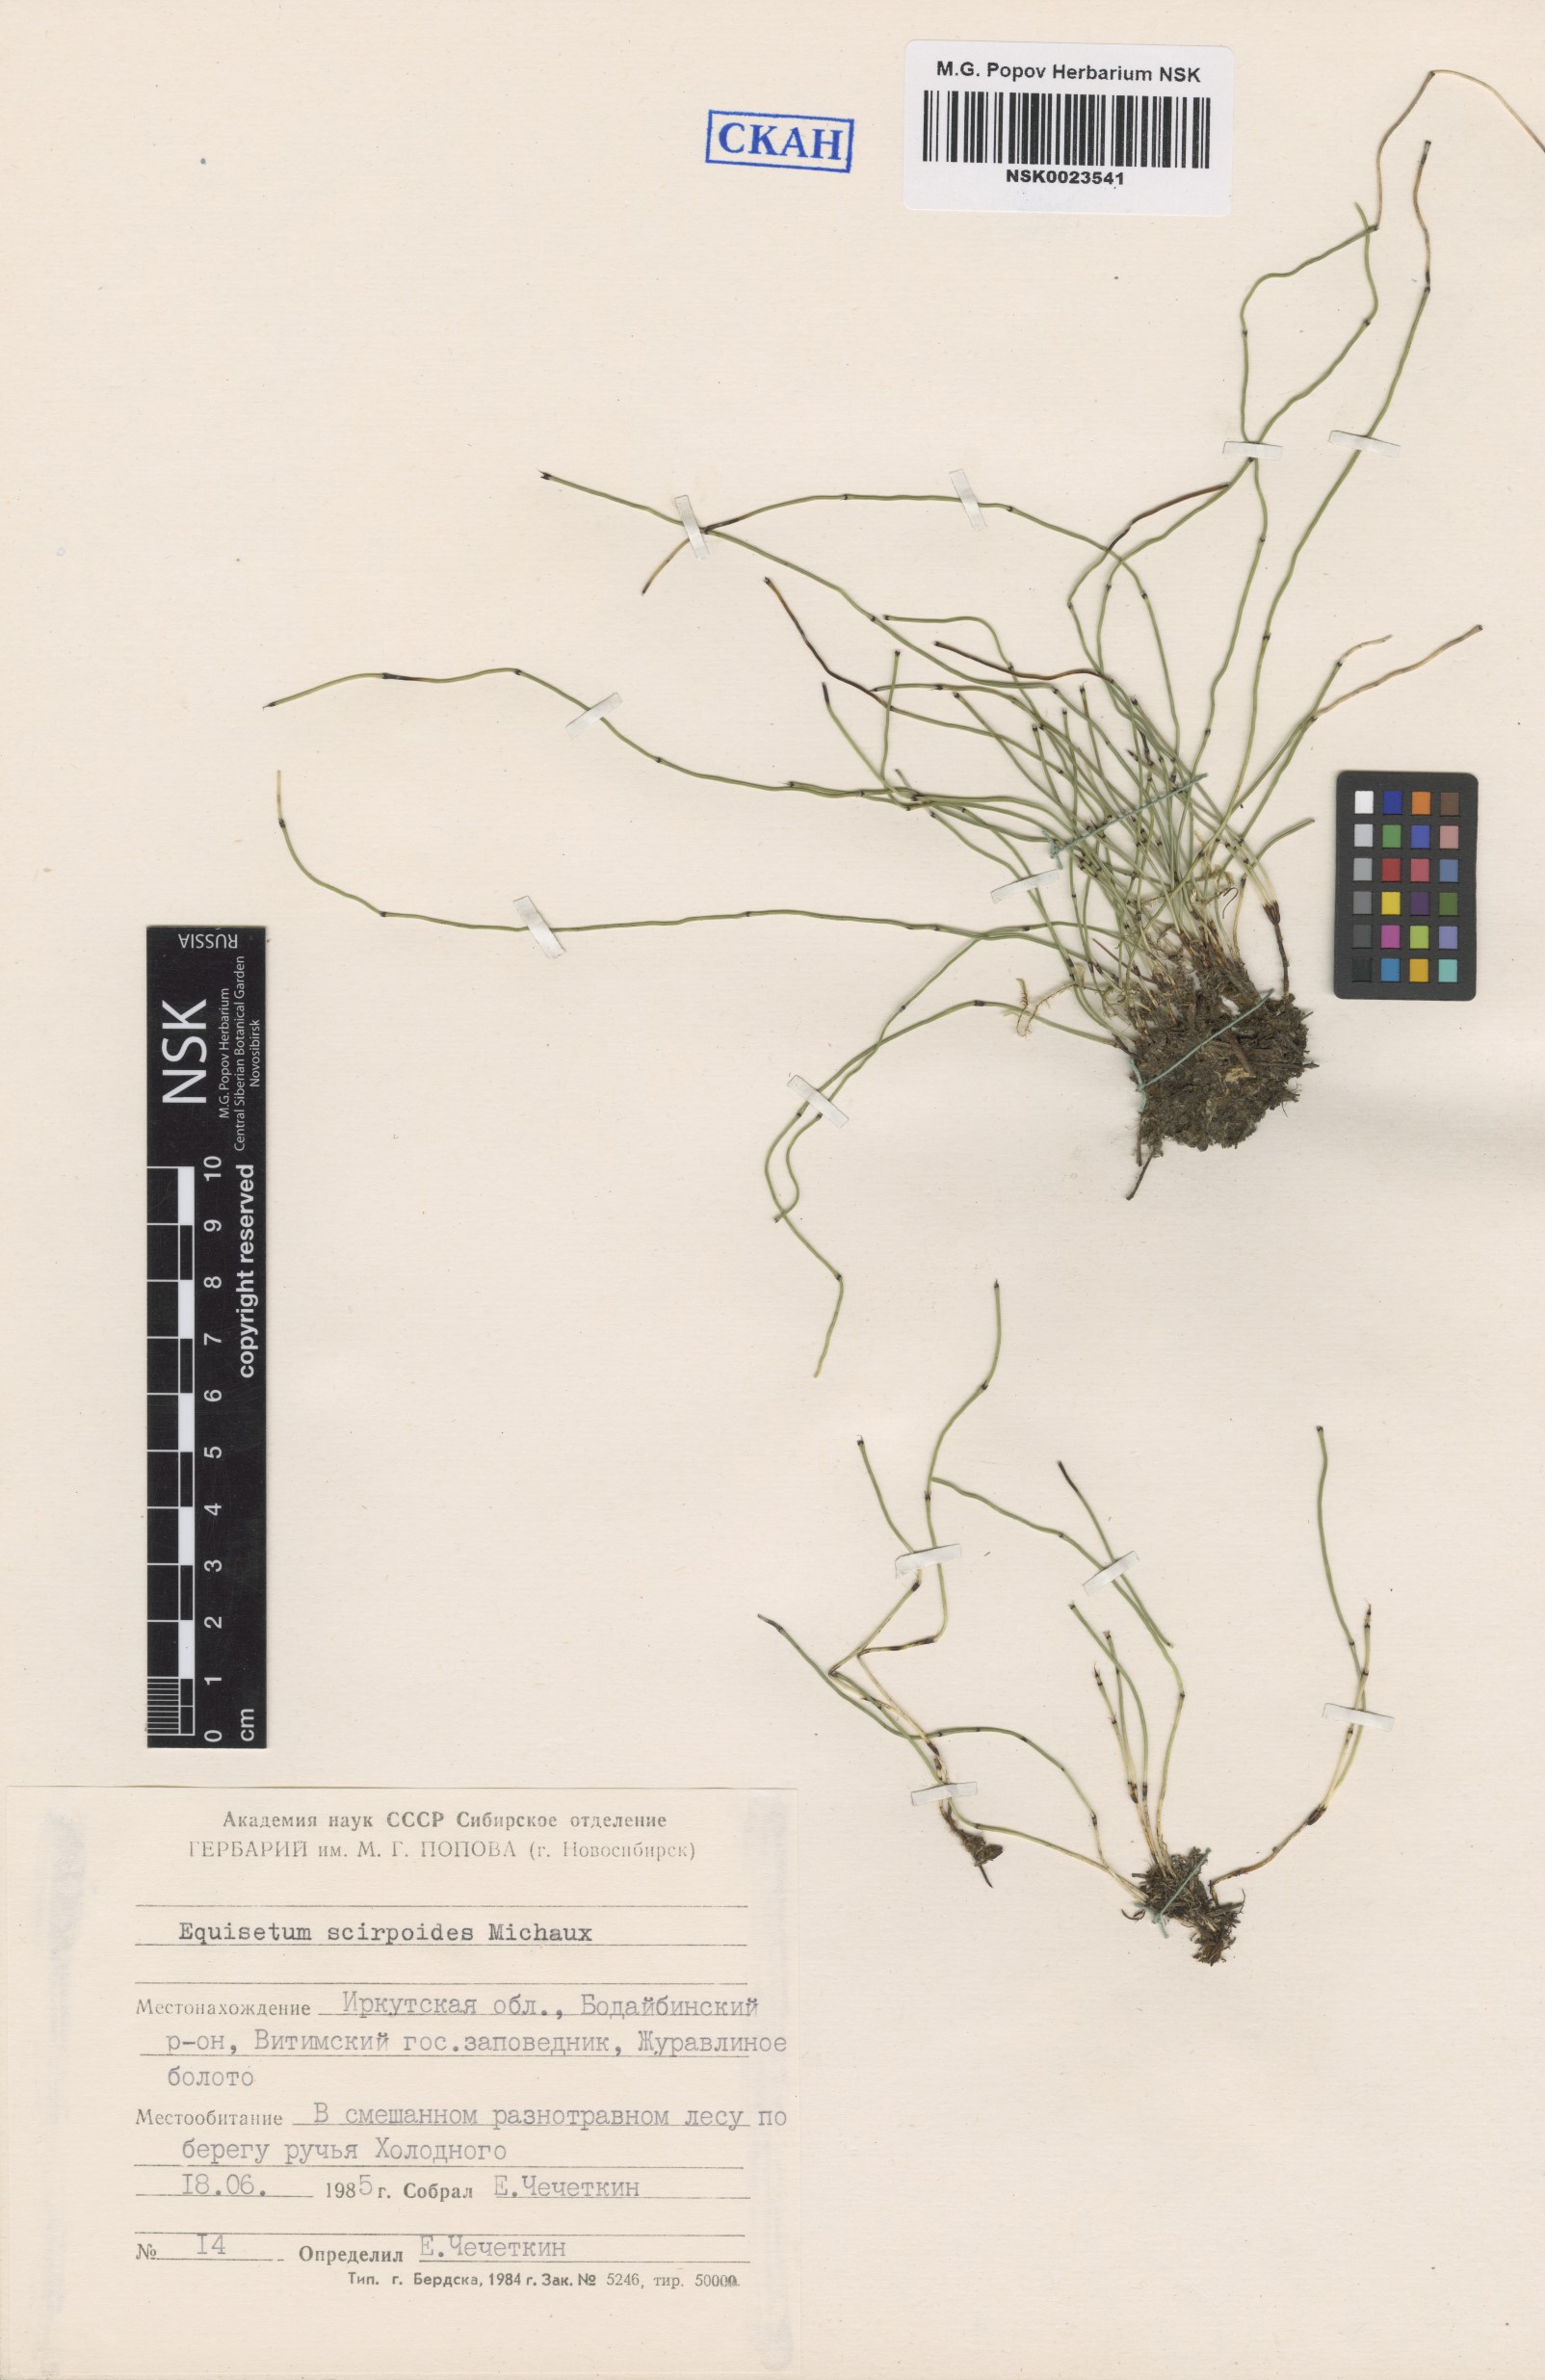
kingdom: Plantae
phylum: Tracheophyta
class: Polypodiopsida
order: Equisetales
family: Equisetaceae
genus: Equisetum
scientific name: Equisetum scirpoides
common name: Delicate horsetail
